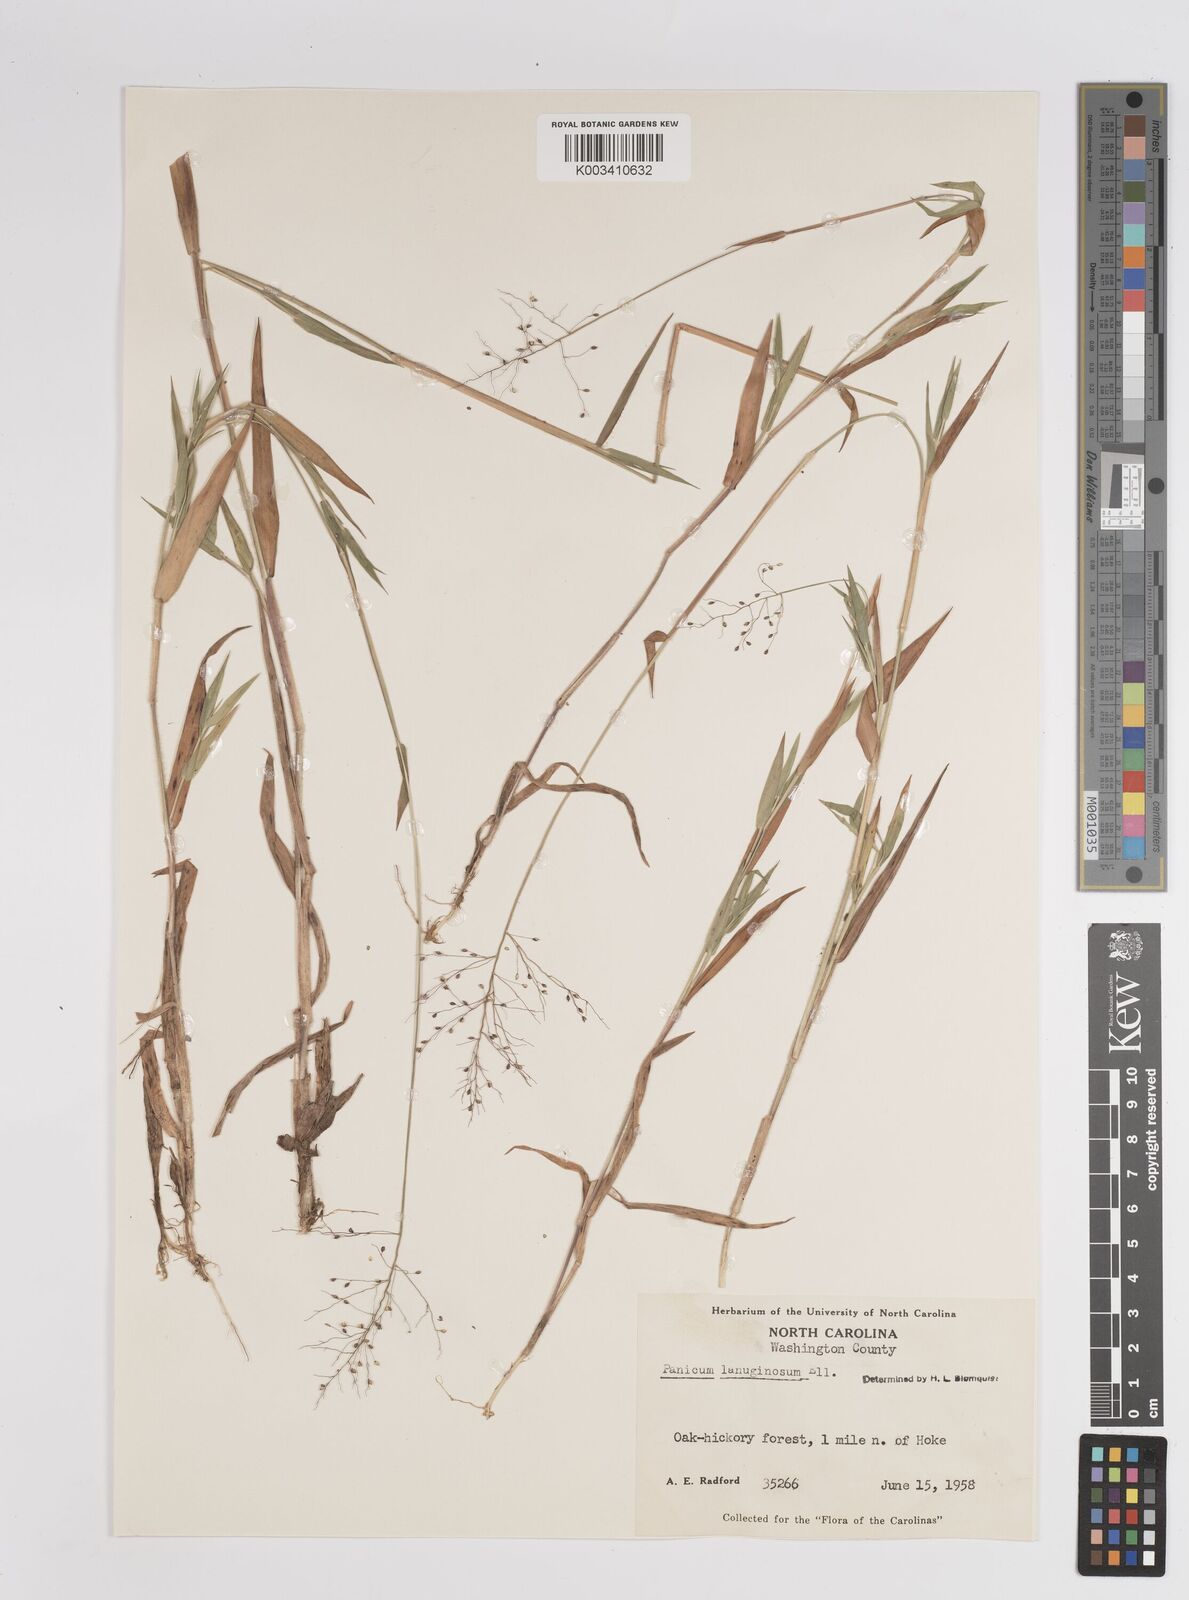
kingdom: Plantae
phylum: Tracheophyta
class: Liliopsida
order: Poales
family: Poaceae
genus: Dichanthelium
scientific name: Dichanthelium lanuginosum
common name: Woolly panicgrass
